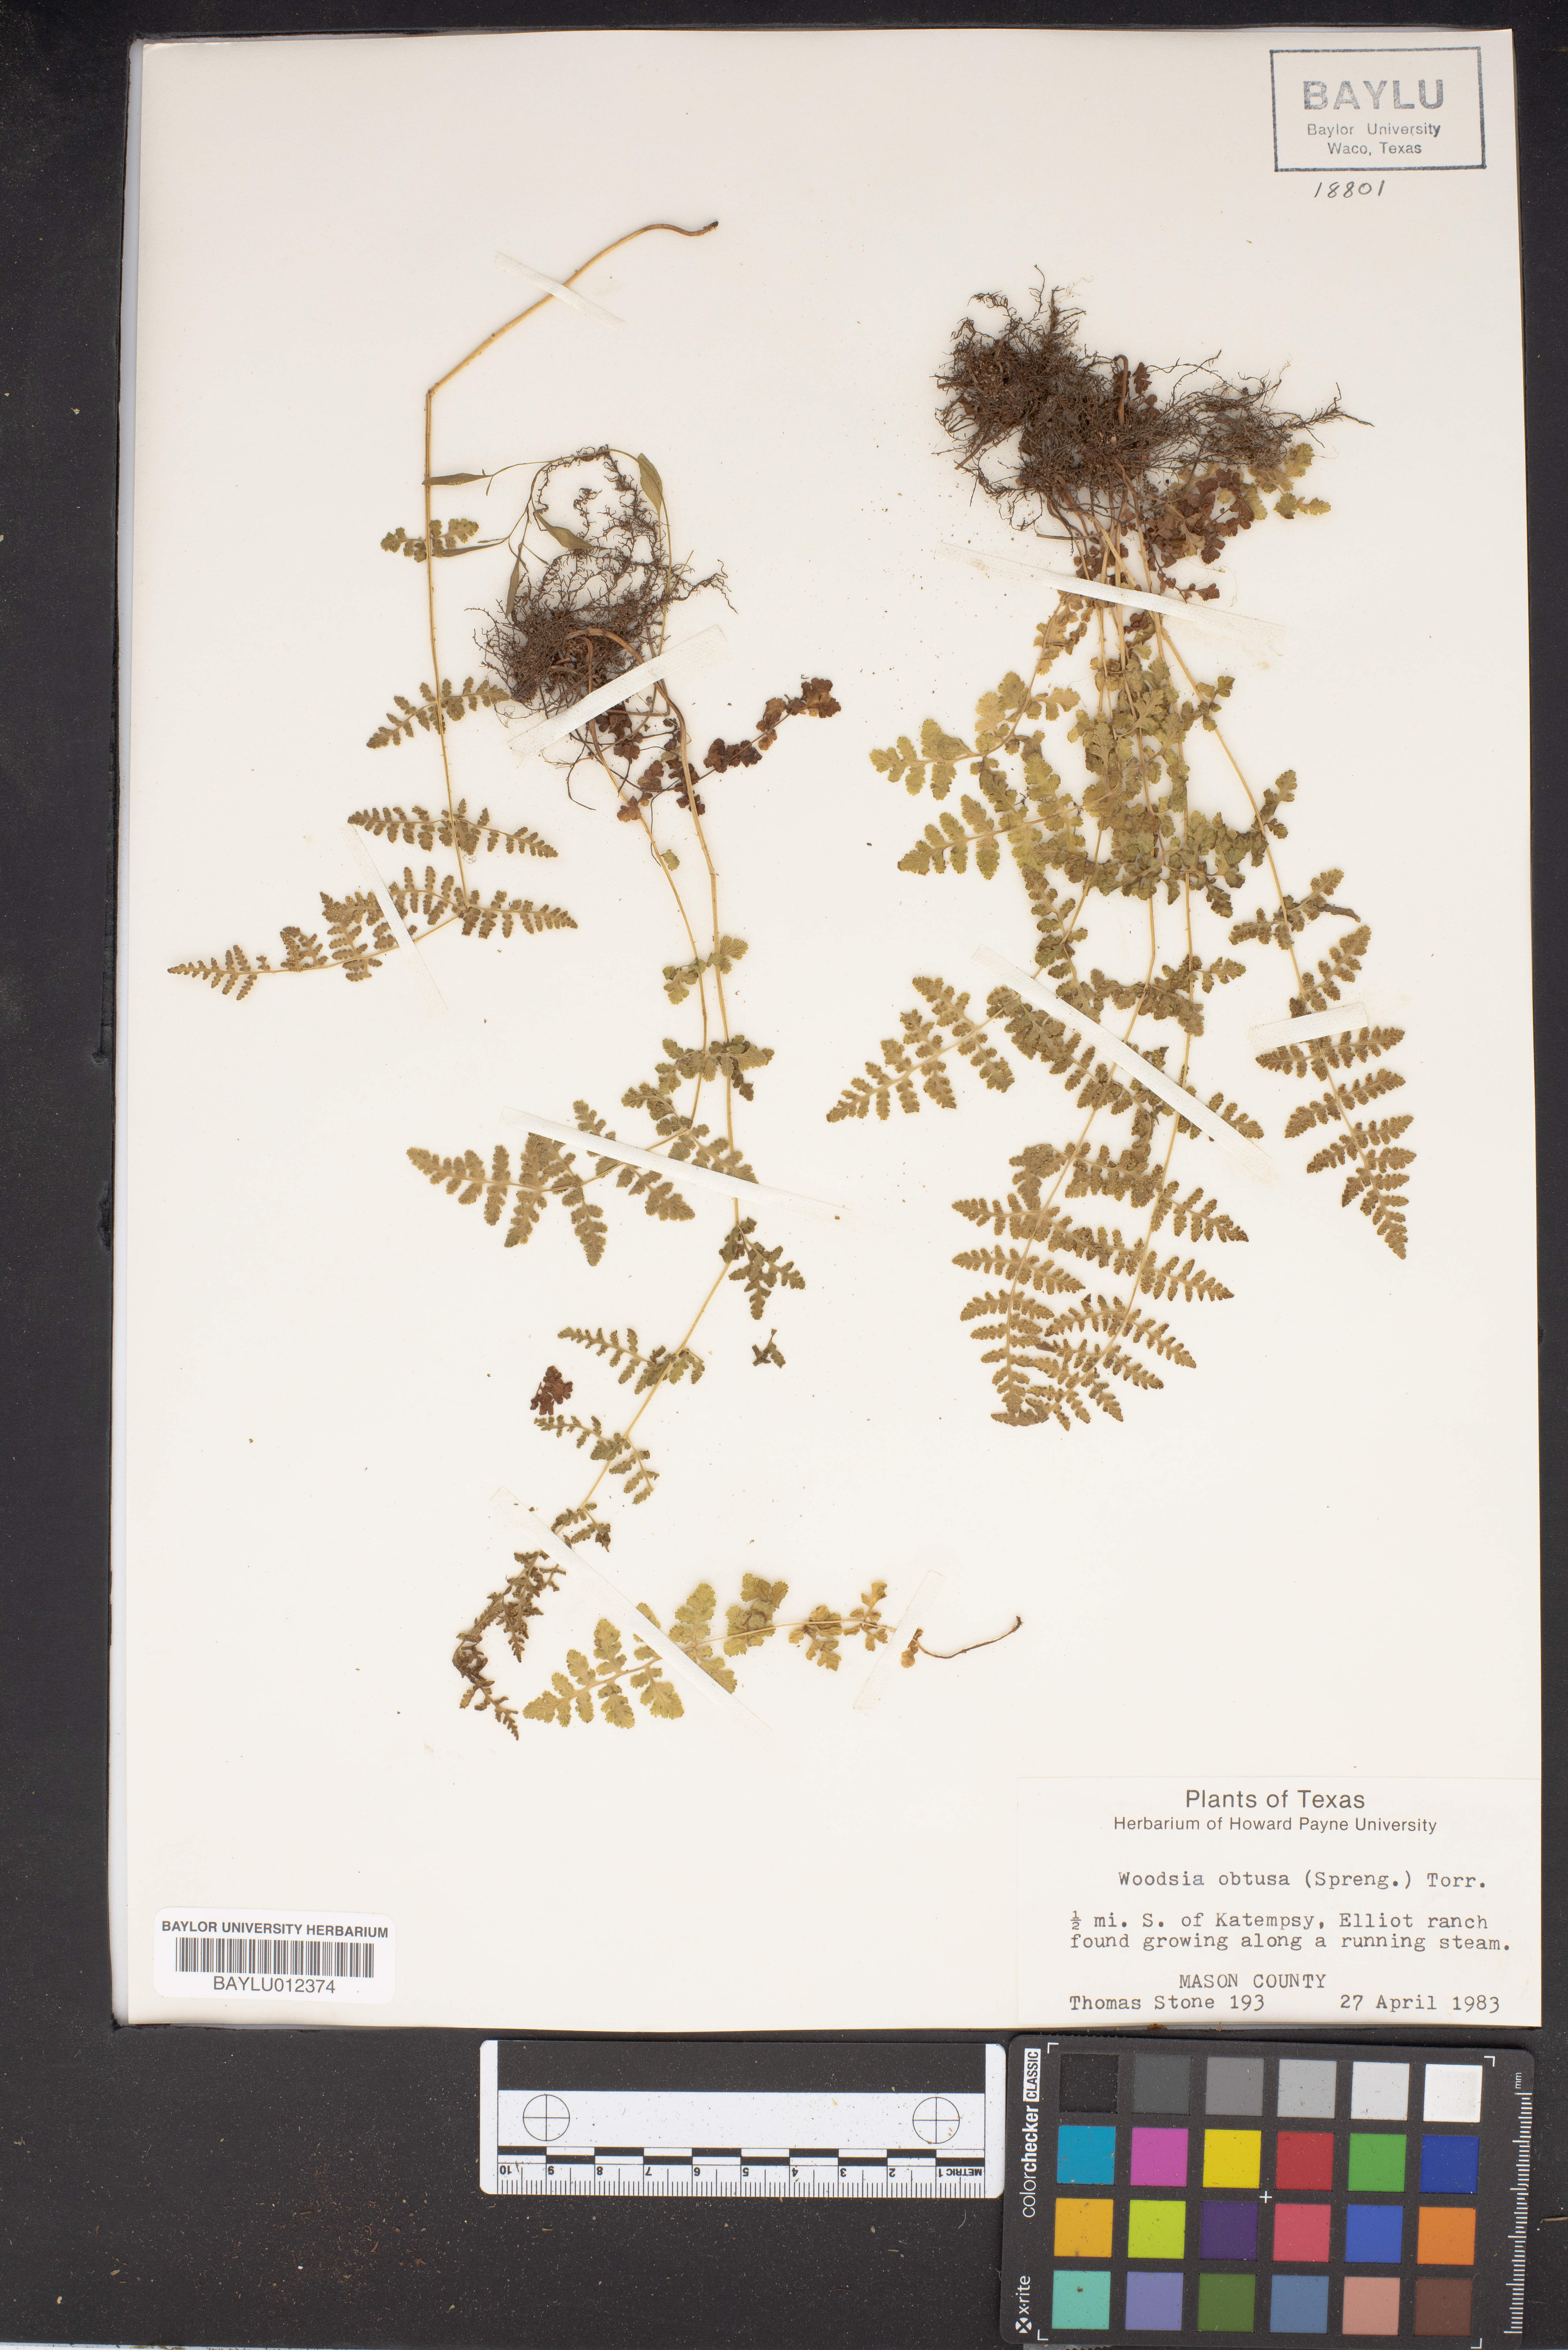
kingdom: Plantae
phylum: Tracheophyta
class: Polypodiopsida
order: Polypodiales
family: Woodsiaceae
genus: Physematium
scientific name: Physematium obtusum
